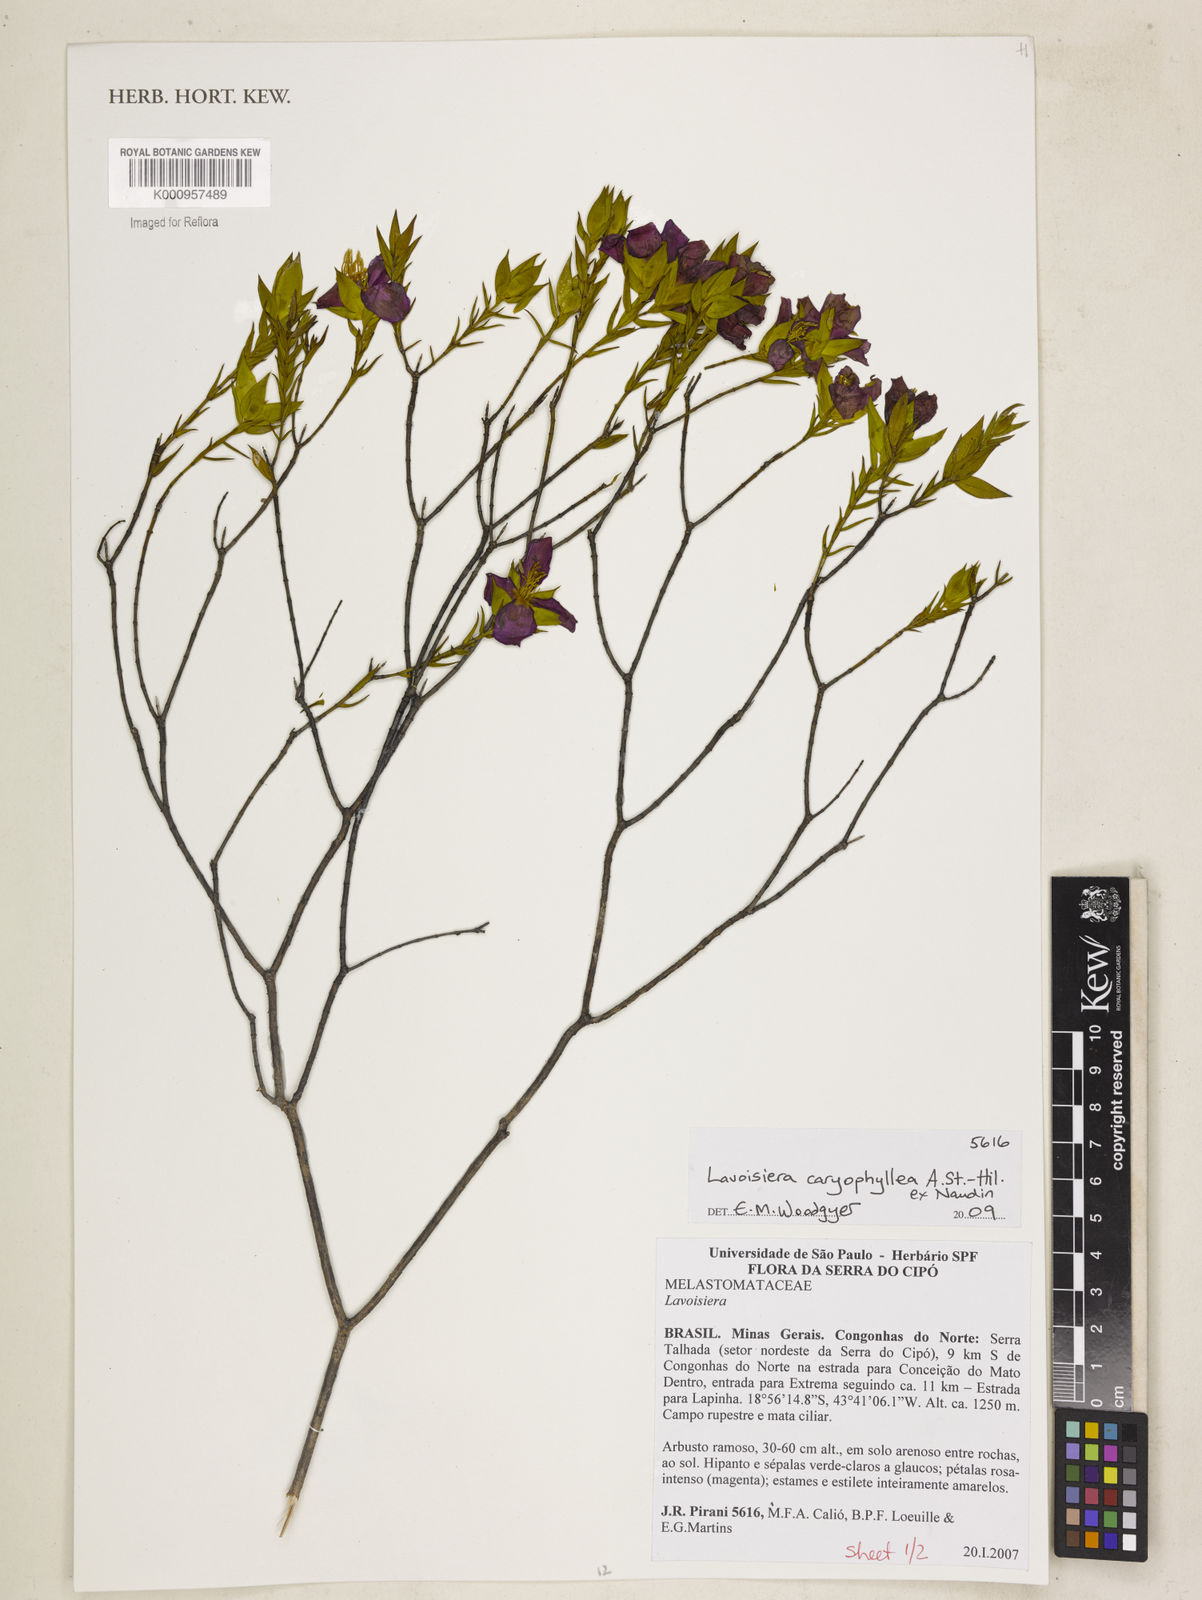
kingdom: Plantae
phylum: Tracheophyta
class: Magnoliopsida
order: Myrtales
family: Melastomataceae
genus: Microlicia
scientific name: Microlicia caryophyllea
